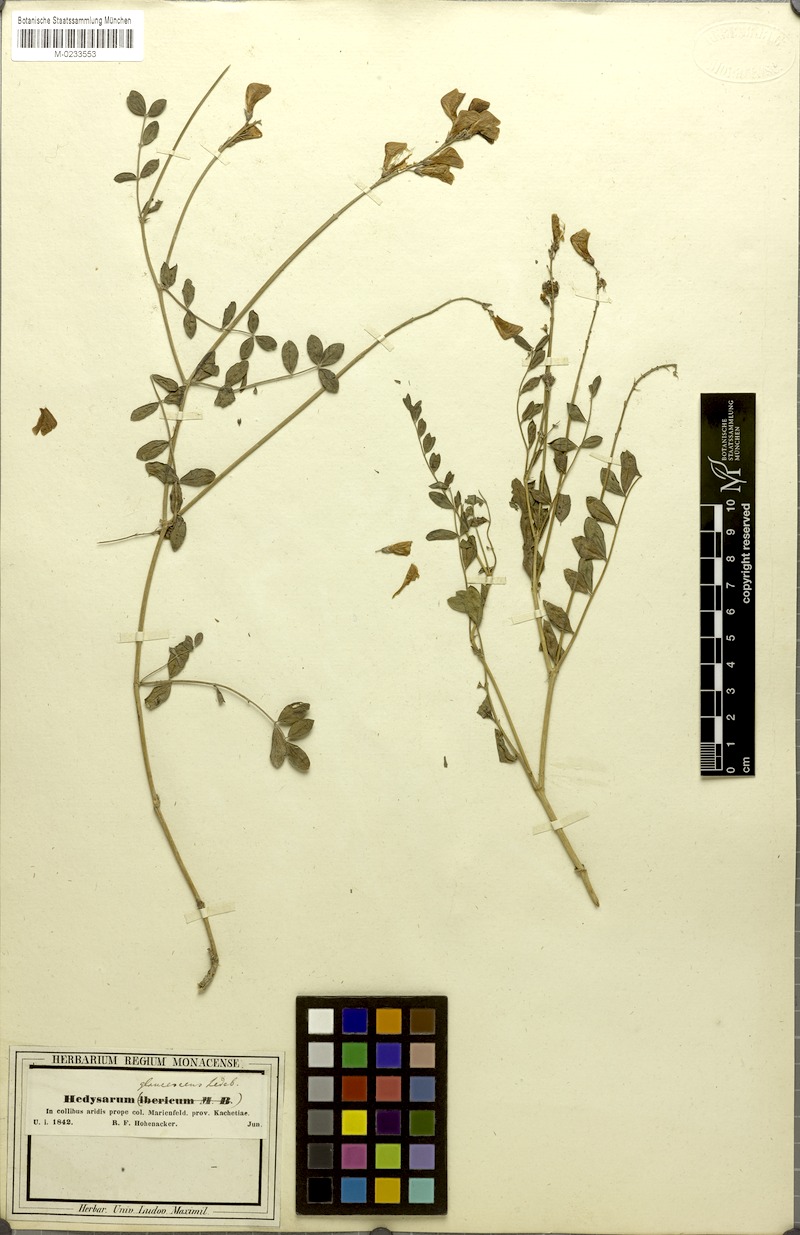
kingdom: Plantae
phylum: Tracheophyta
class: Magnoliopsida
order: Fabales
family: Fabaceae
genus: Hedysarum
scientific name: Hedysarum ibericum
